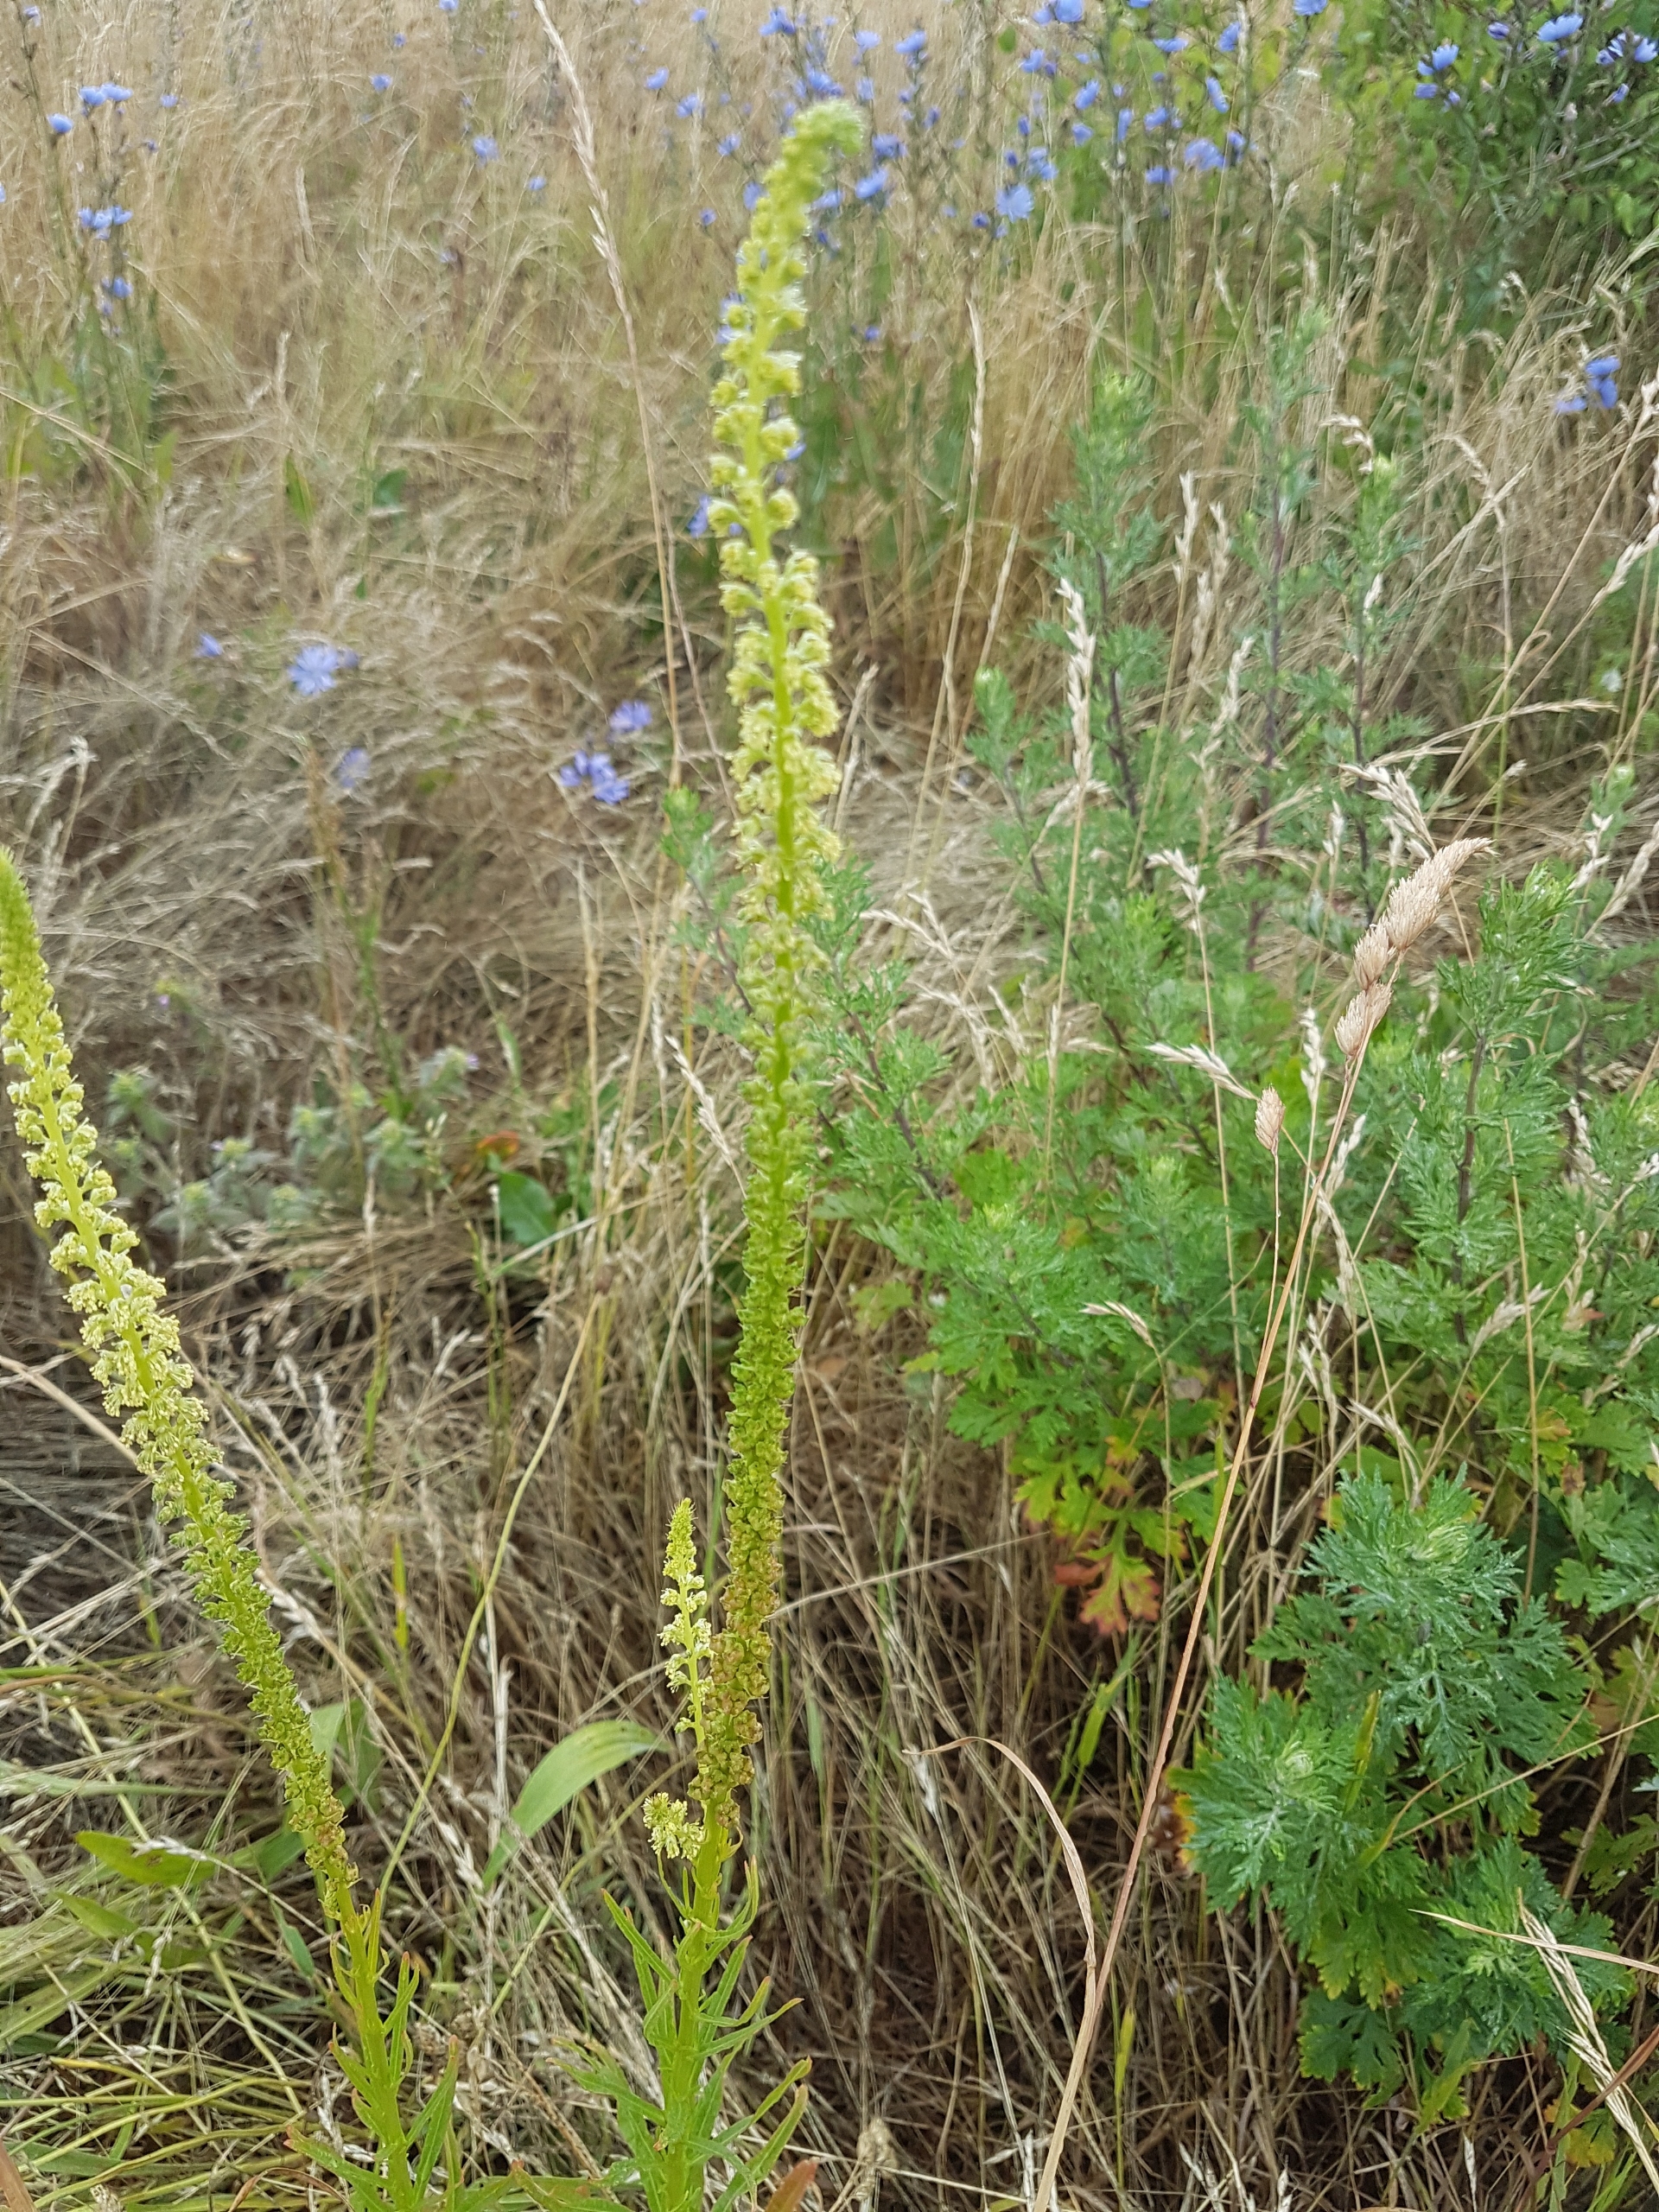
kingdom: Plantae
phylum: Tracheophyta
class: Magnoliopsida
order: Brassicales
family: Resedaceae
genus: Reseda
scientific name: Reseda luteola
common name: Farve-reseda
